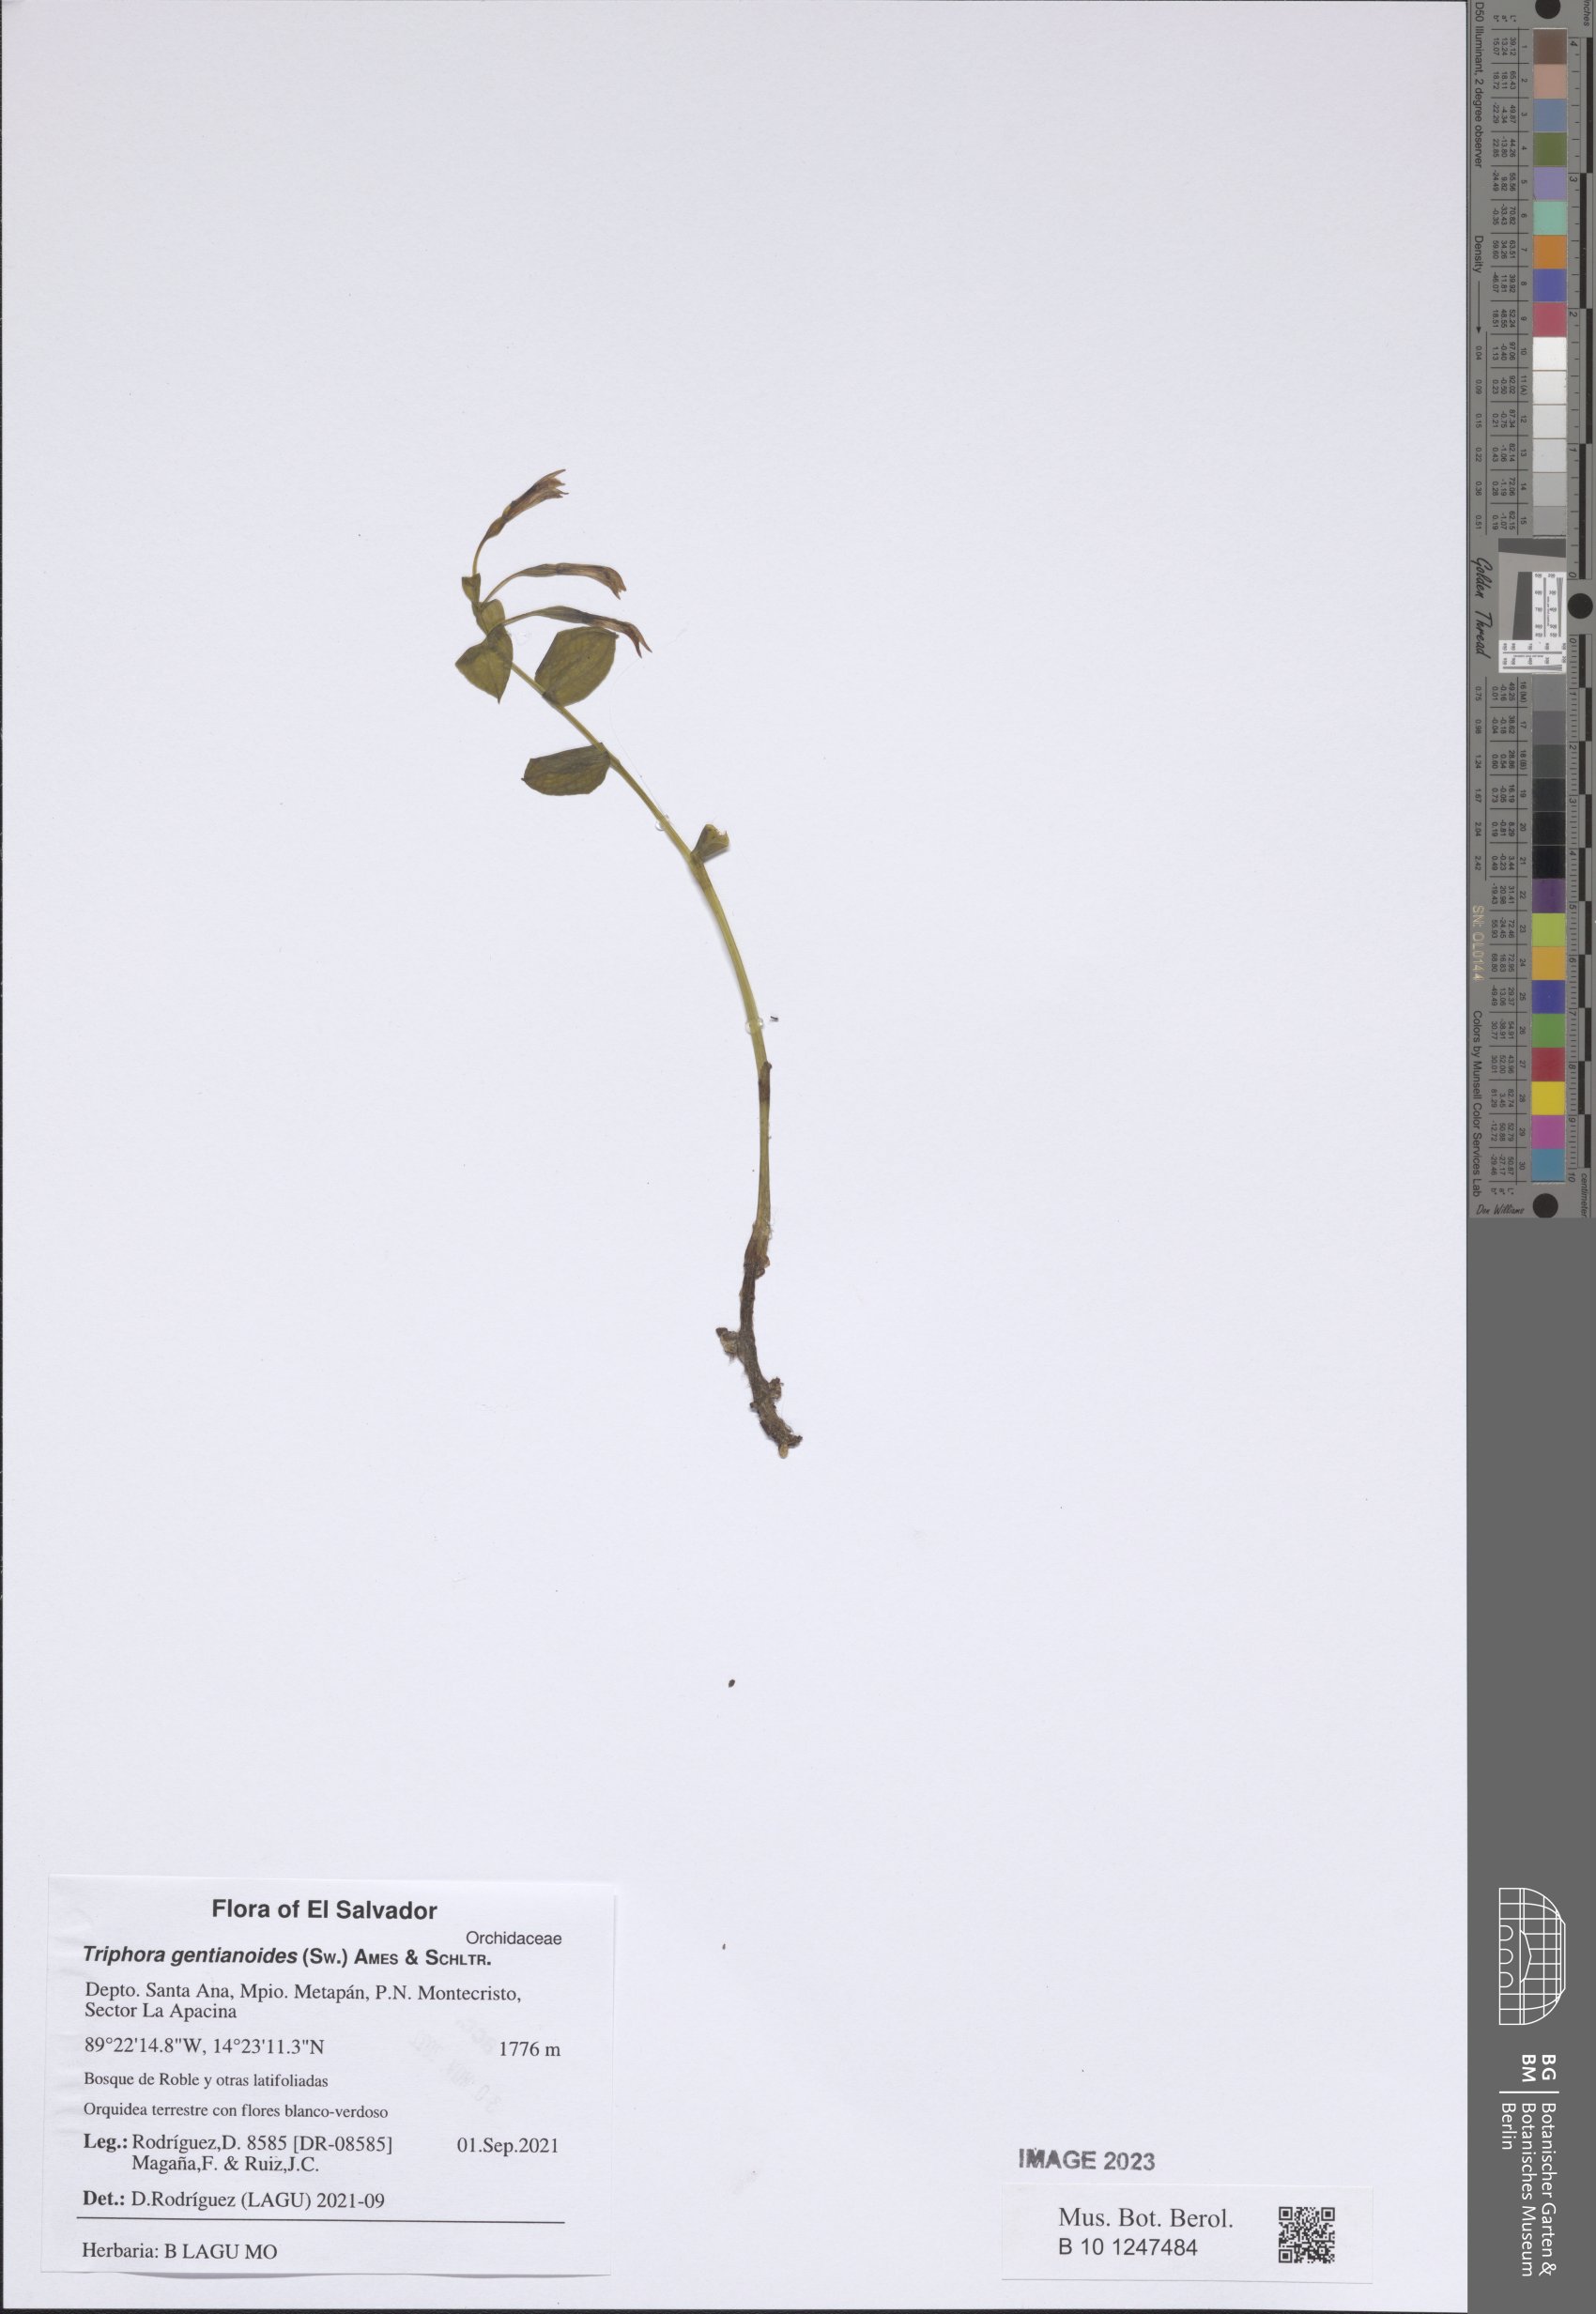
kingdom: Plantae
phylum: Tracheophyta
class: Liliopsida
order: Asparagales
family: Orchidaceae
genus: Triphora
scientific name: Triphora gentianoides
